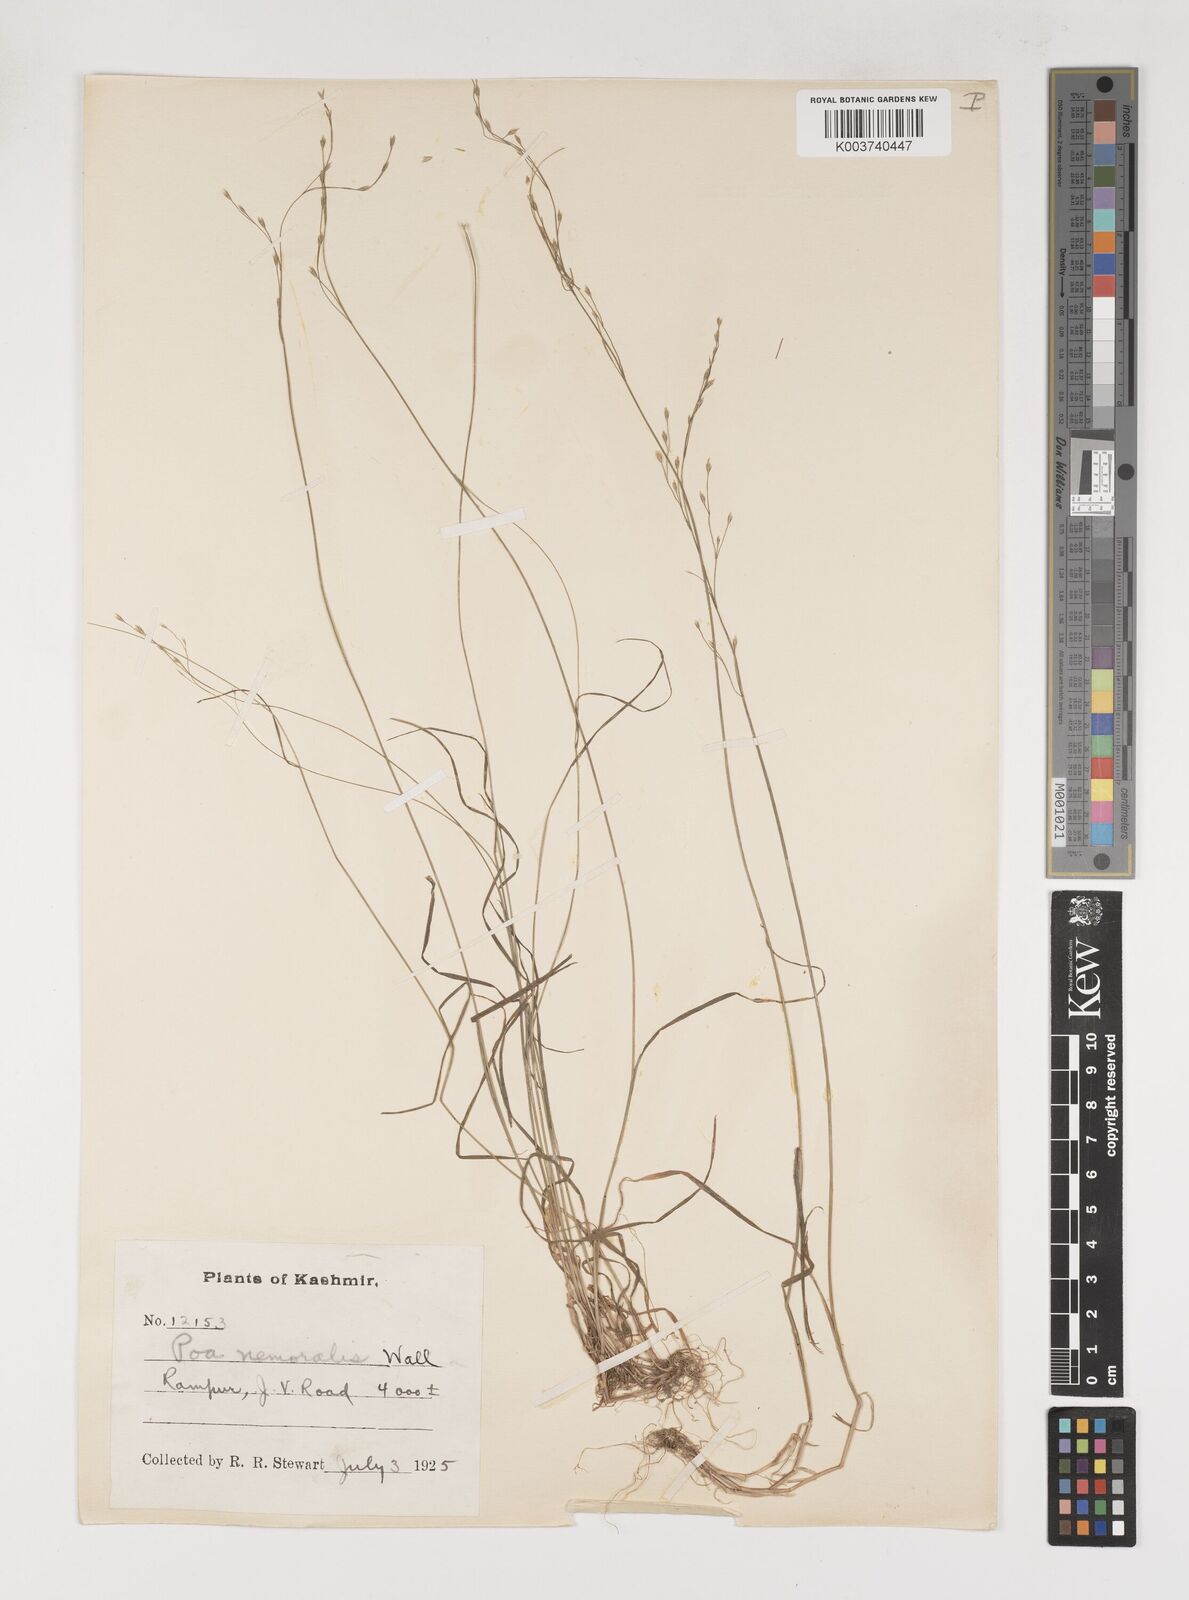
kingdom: Plantae
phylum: Tracheophyta
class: Liliopsida
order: Poales
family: Poaceae
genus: Poa
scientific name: Poa nemoralis
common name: Wood bluegrass
